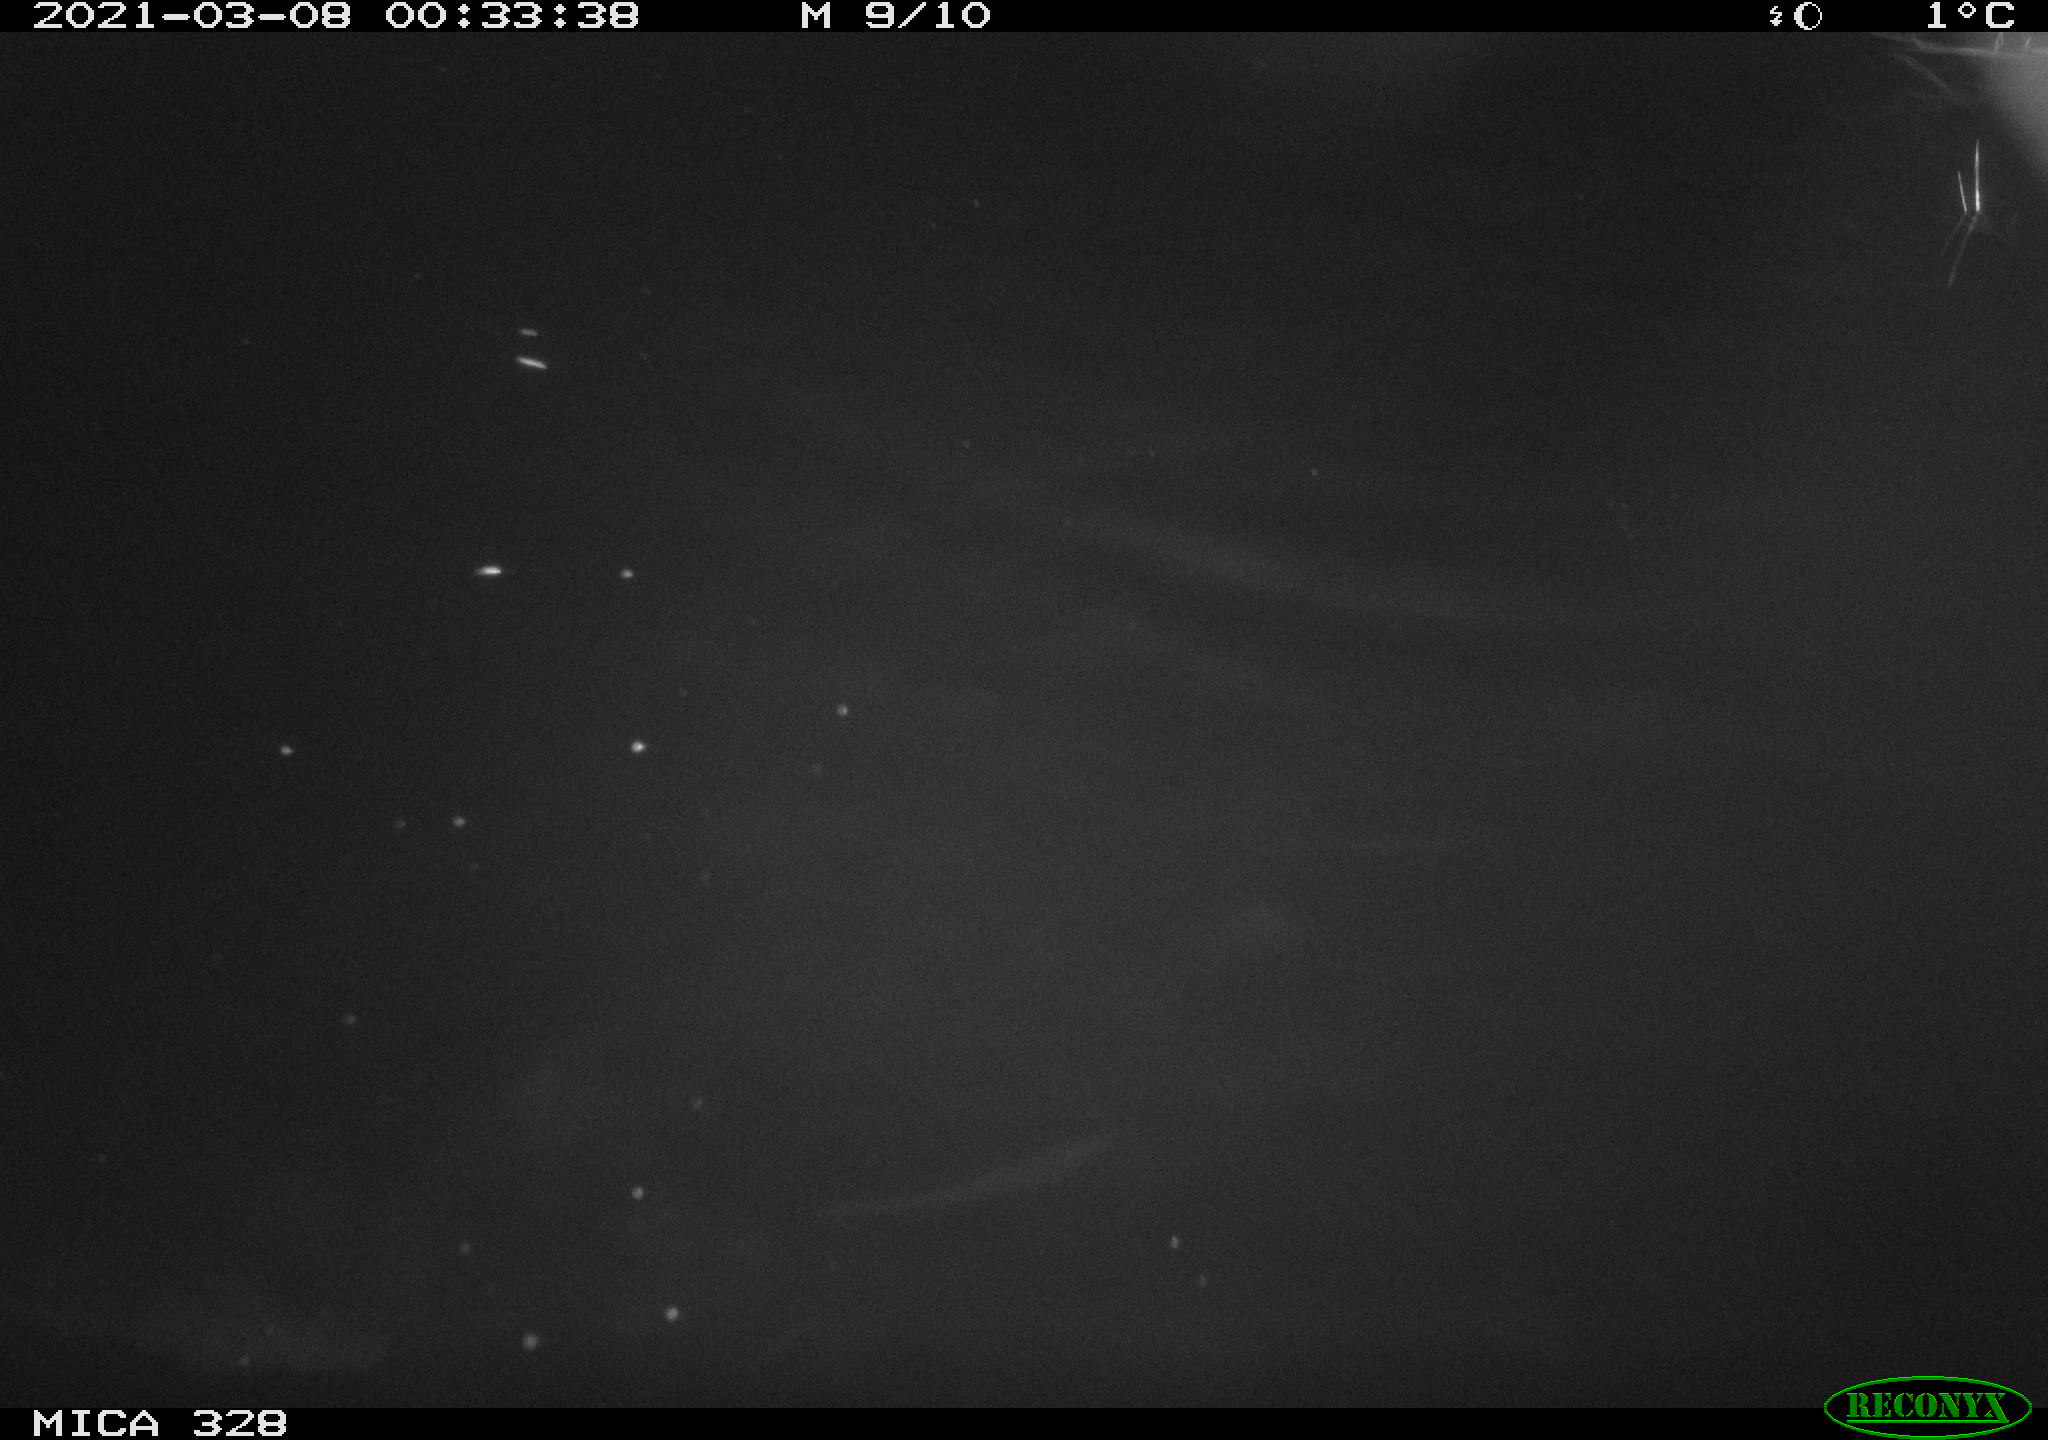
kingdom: Animalia
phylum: Chordata
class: Mammalia
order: Rodentia
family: Cricetidae
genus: Ondatra
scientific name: Ondatra zibethicus
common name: Muskrat
